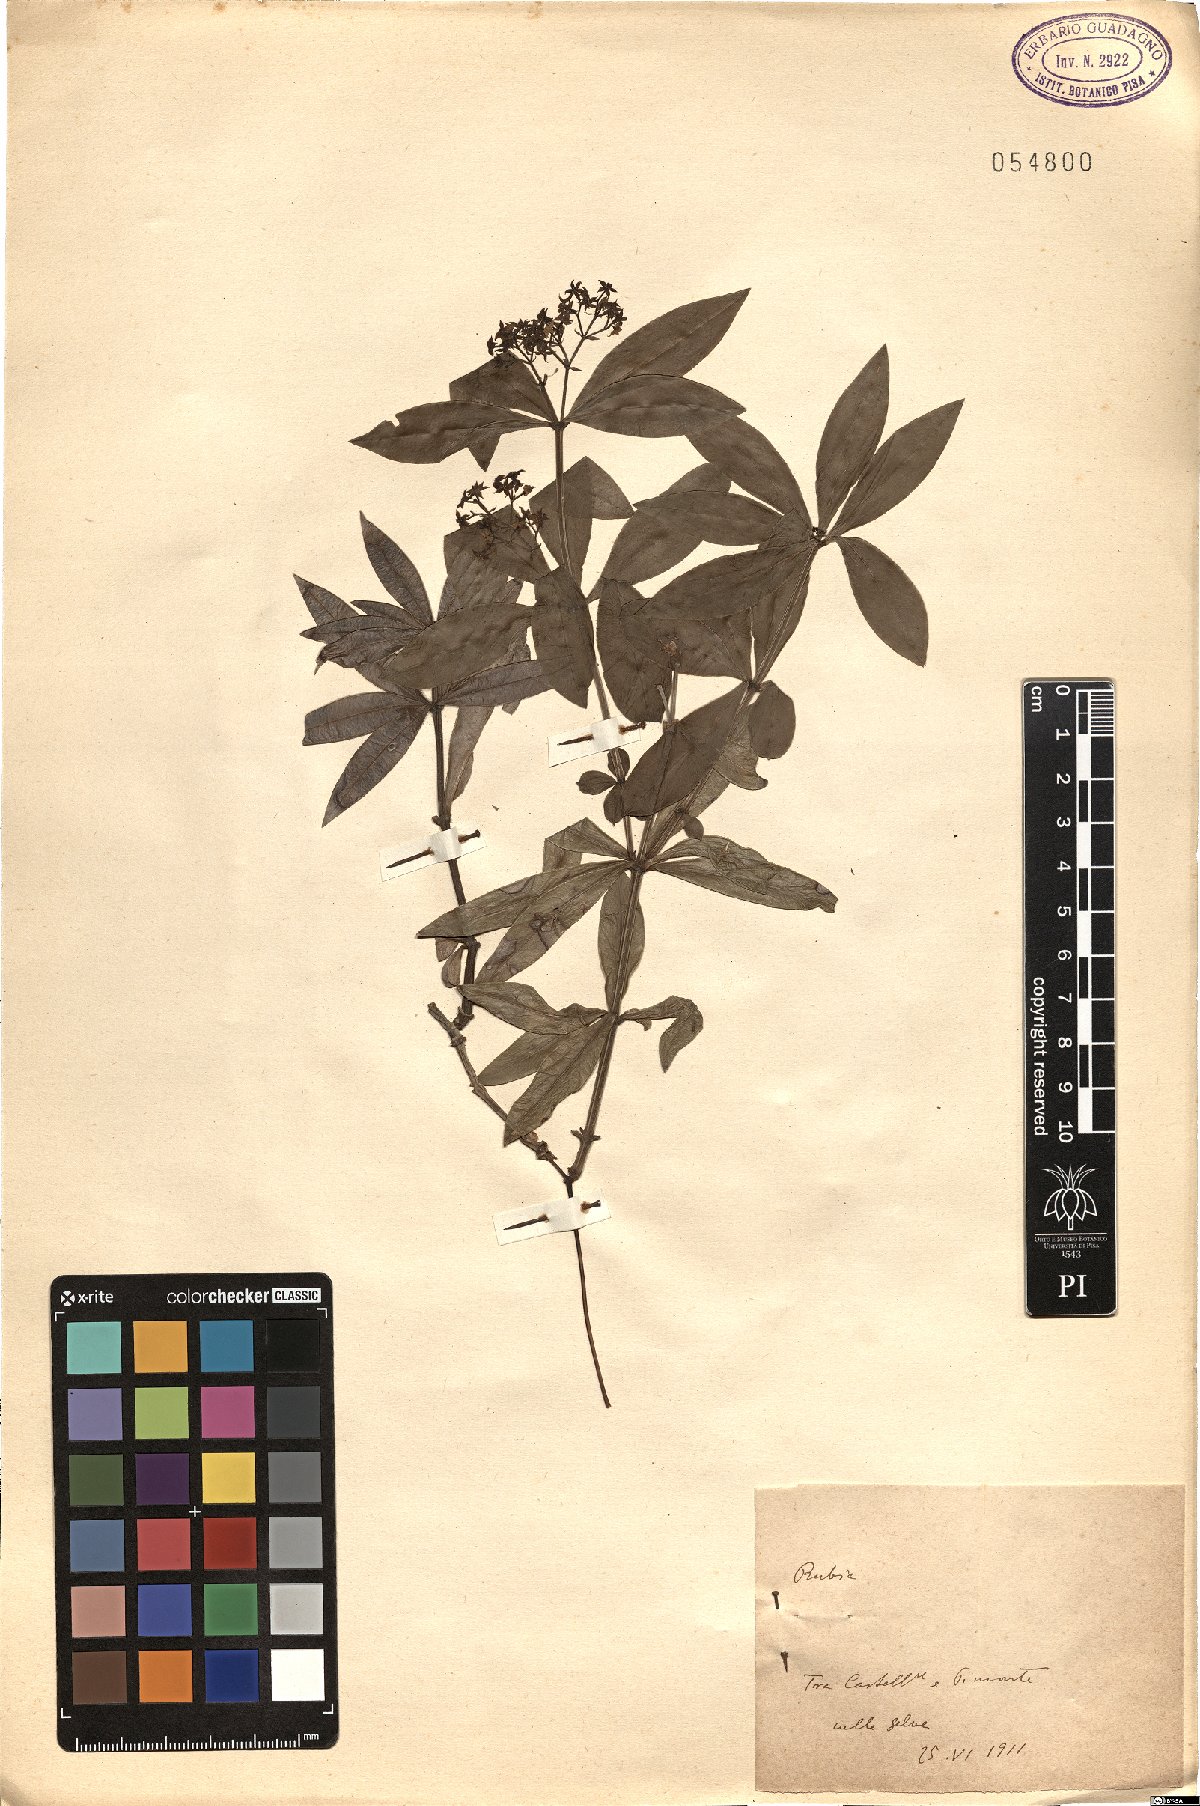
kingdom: Plantae
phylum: Tracheophyta
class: Magnoliopsida
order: Gentianales
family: Rubiaceae
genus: Rubia
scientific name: Rubia
